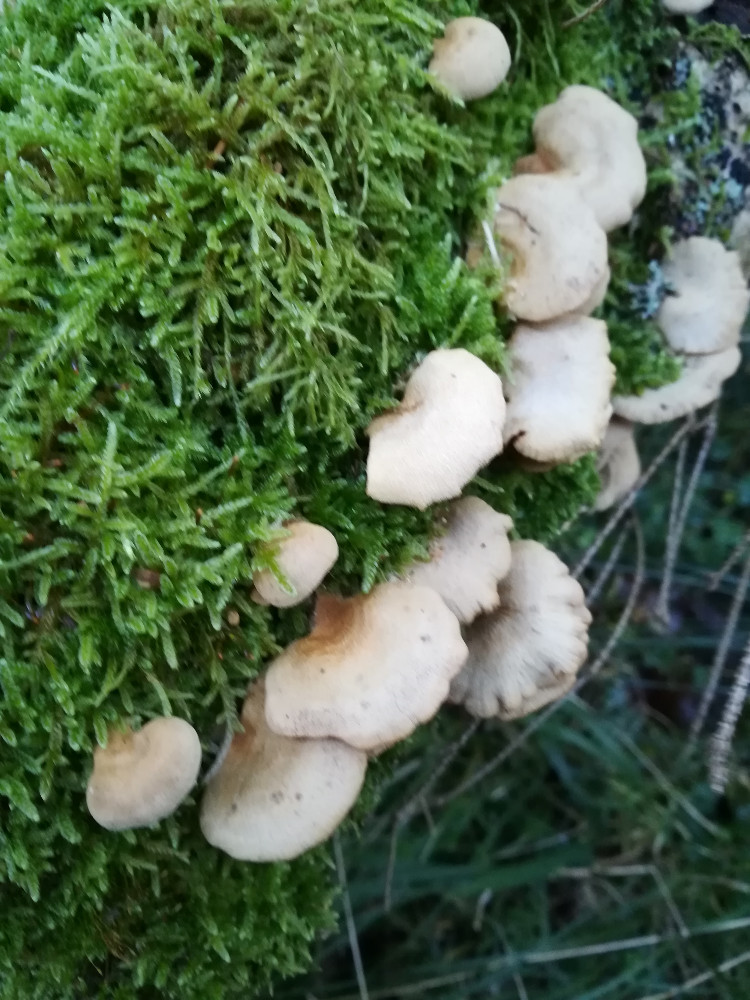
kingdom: Fungi
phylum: Basidiomycota
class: Agaricomycetes
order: Agaricales
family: Mycenaceae
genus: Panellus
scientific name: Panellus stipticus
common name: kliddet epaulethat
